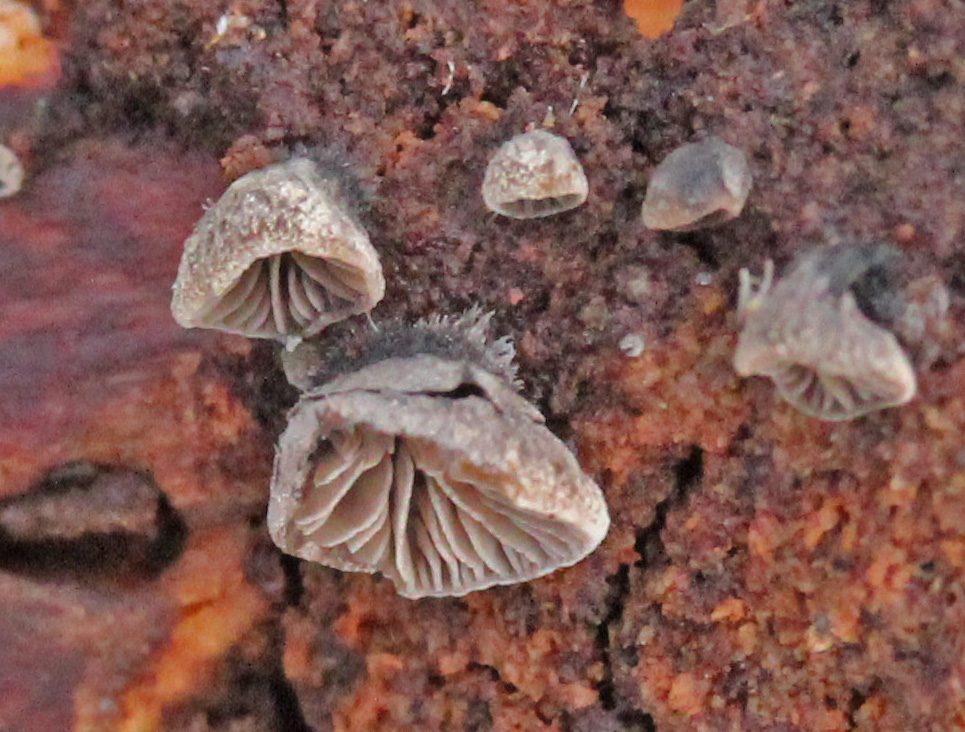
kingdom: Fungi
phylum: Basidiomycota
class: Agaricomycetes
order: Agaricales
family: Pleurotaceae
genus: Resupinatus
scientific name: Resupinatus trichotis
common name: mørkfiltet barkhat
